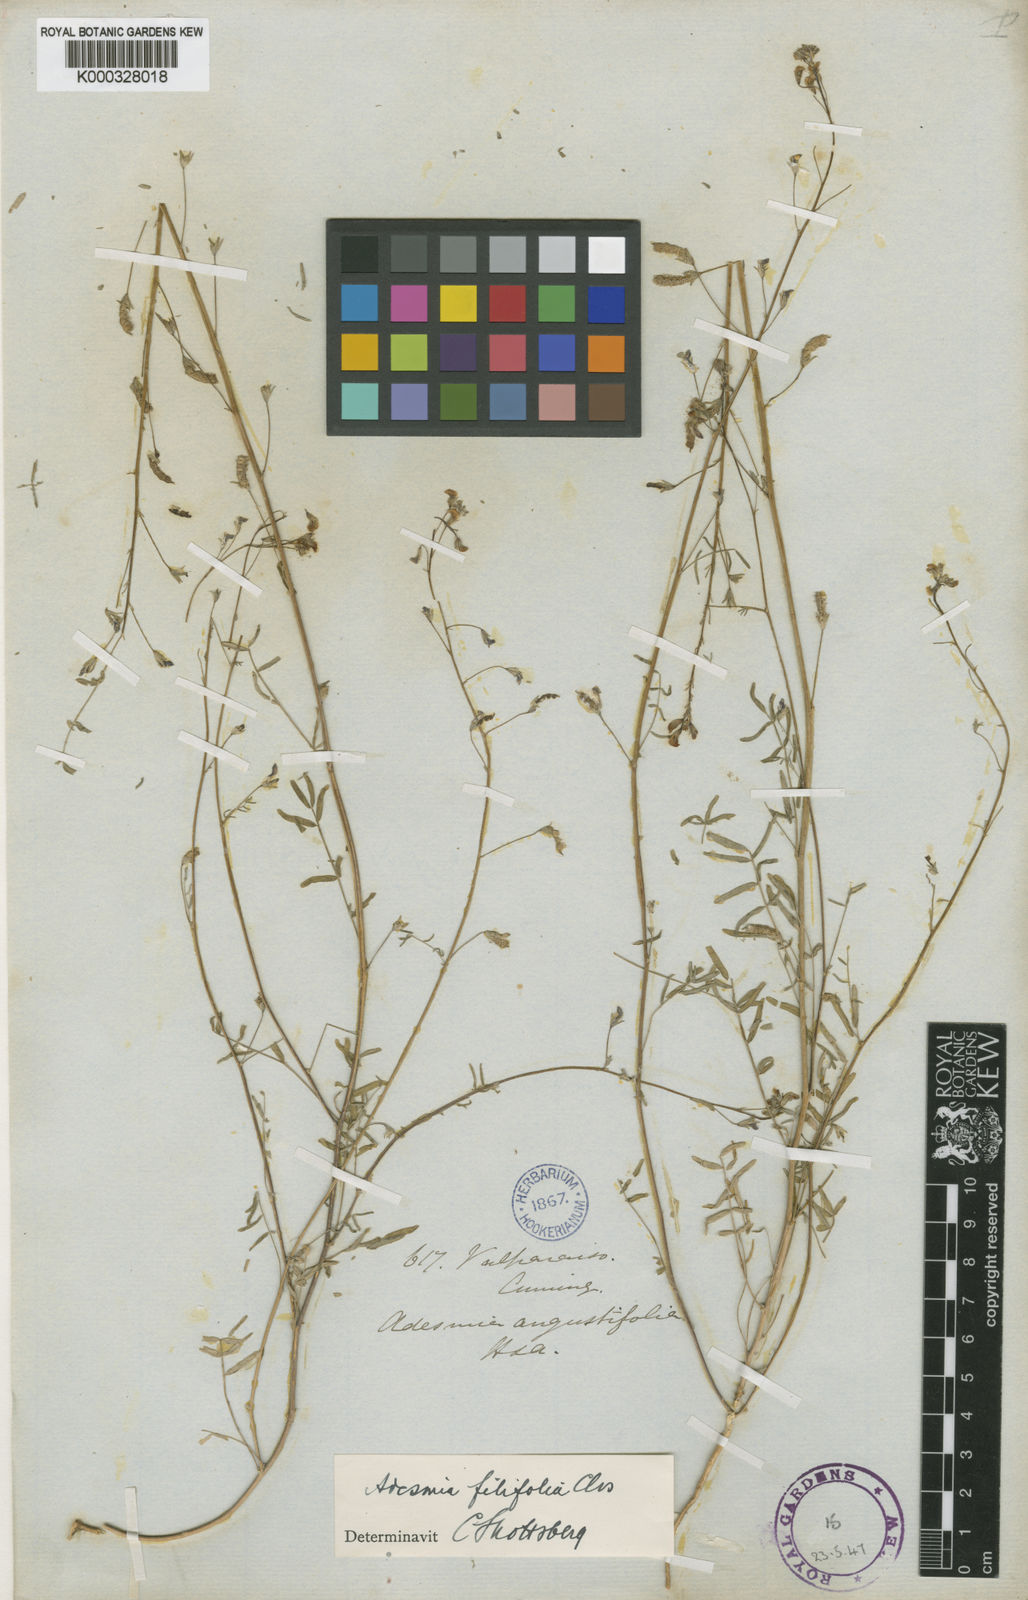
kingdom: Plantae
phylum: Tracheophyta
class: Magnoliopsida
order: Fabales
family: Fabaceae
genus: Adesmia
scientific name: Adesmia filifolia
